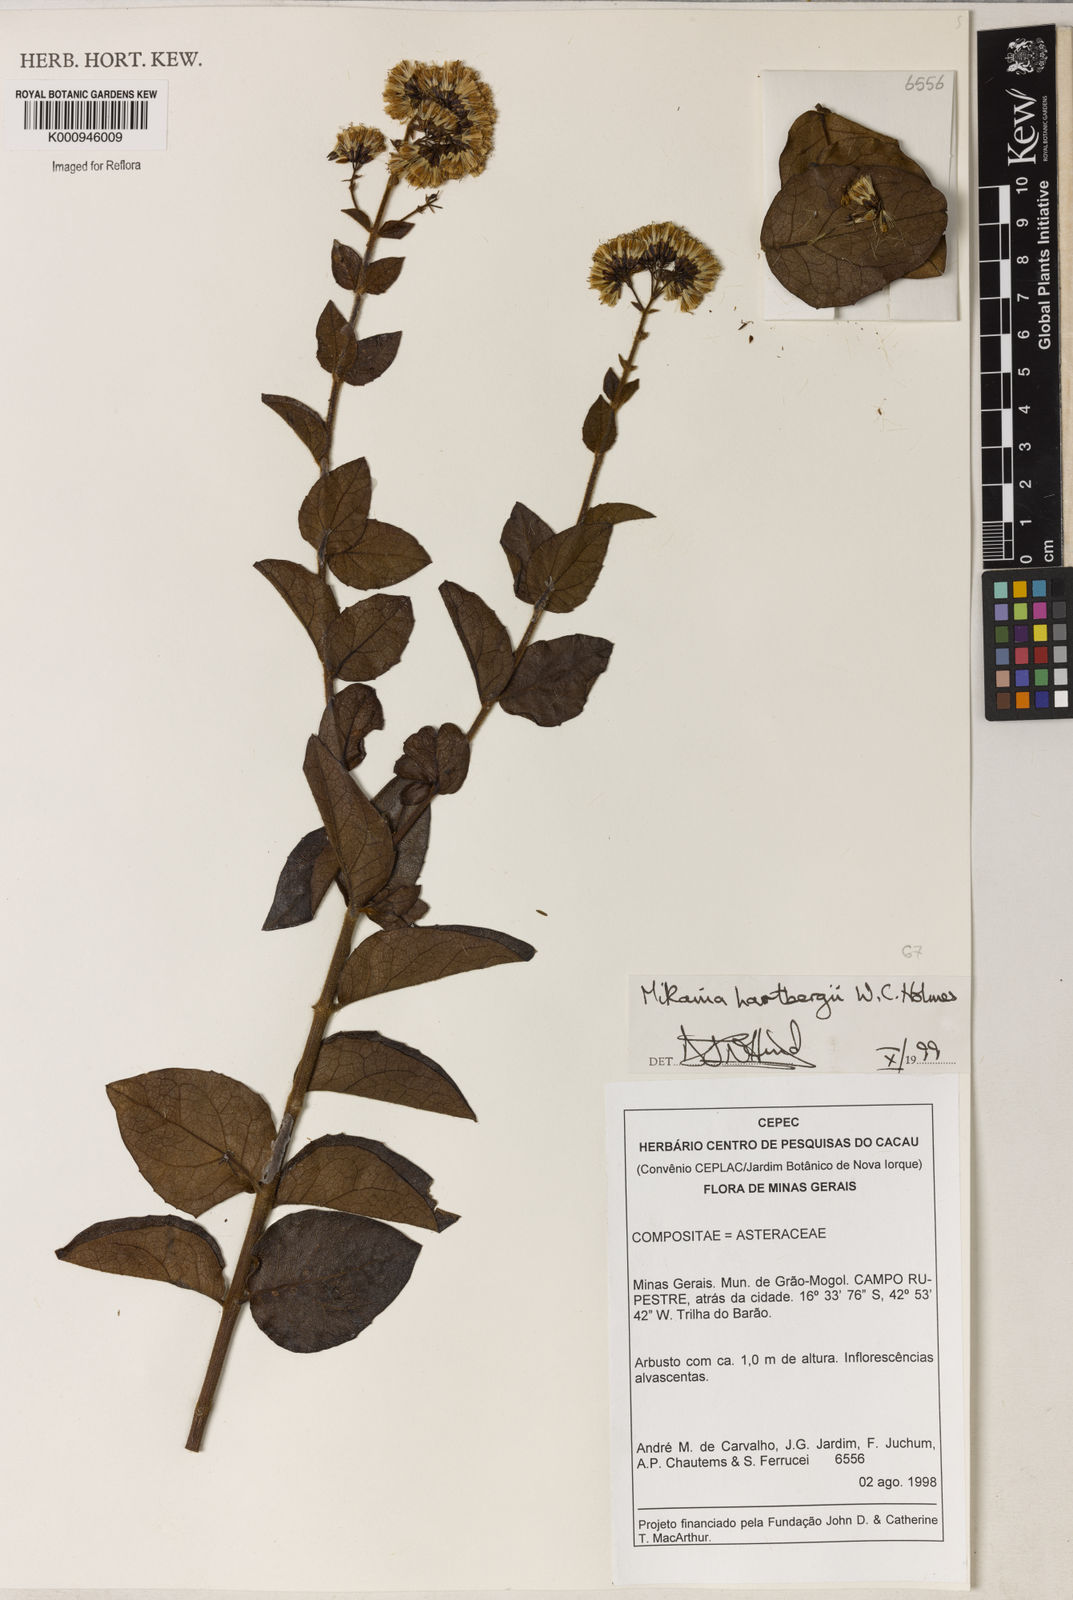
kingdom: Plantae
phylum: Tracheophyta
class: Magnoliopsida
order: Asterales
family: Asteraceae
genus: Mikania
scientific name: Mikania hartbergii
